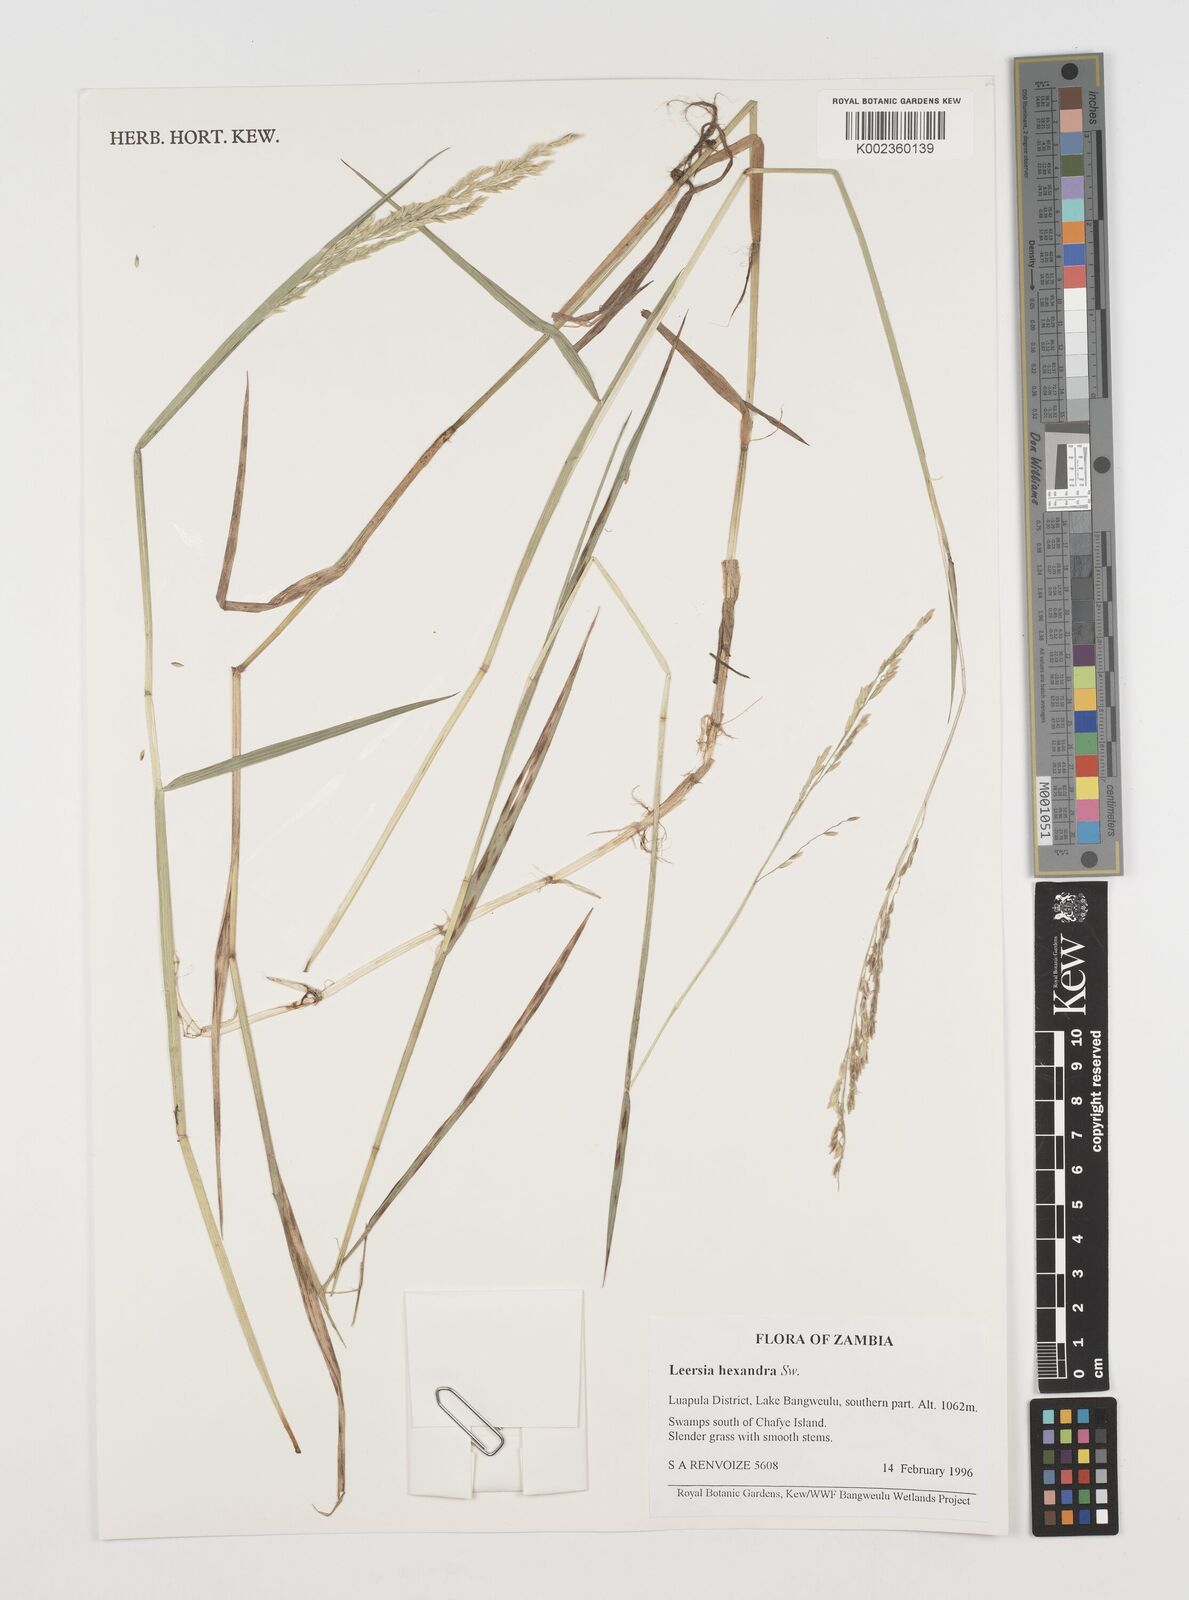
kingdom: Plantae
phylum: Tracheophyta
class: Liliopsida
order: Poales
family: Poaceae
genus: Leersia
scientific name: Leersia hexandra
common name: Southern cut grass
